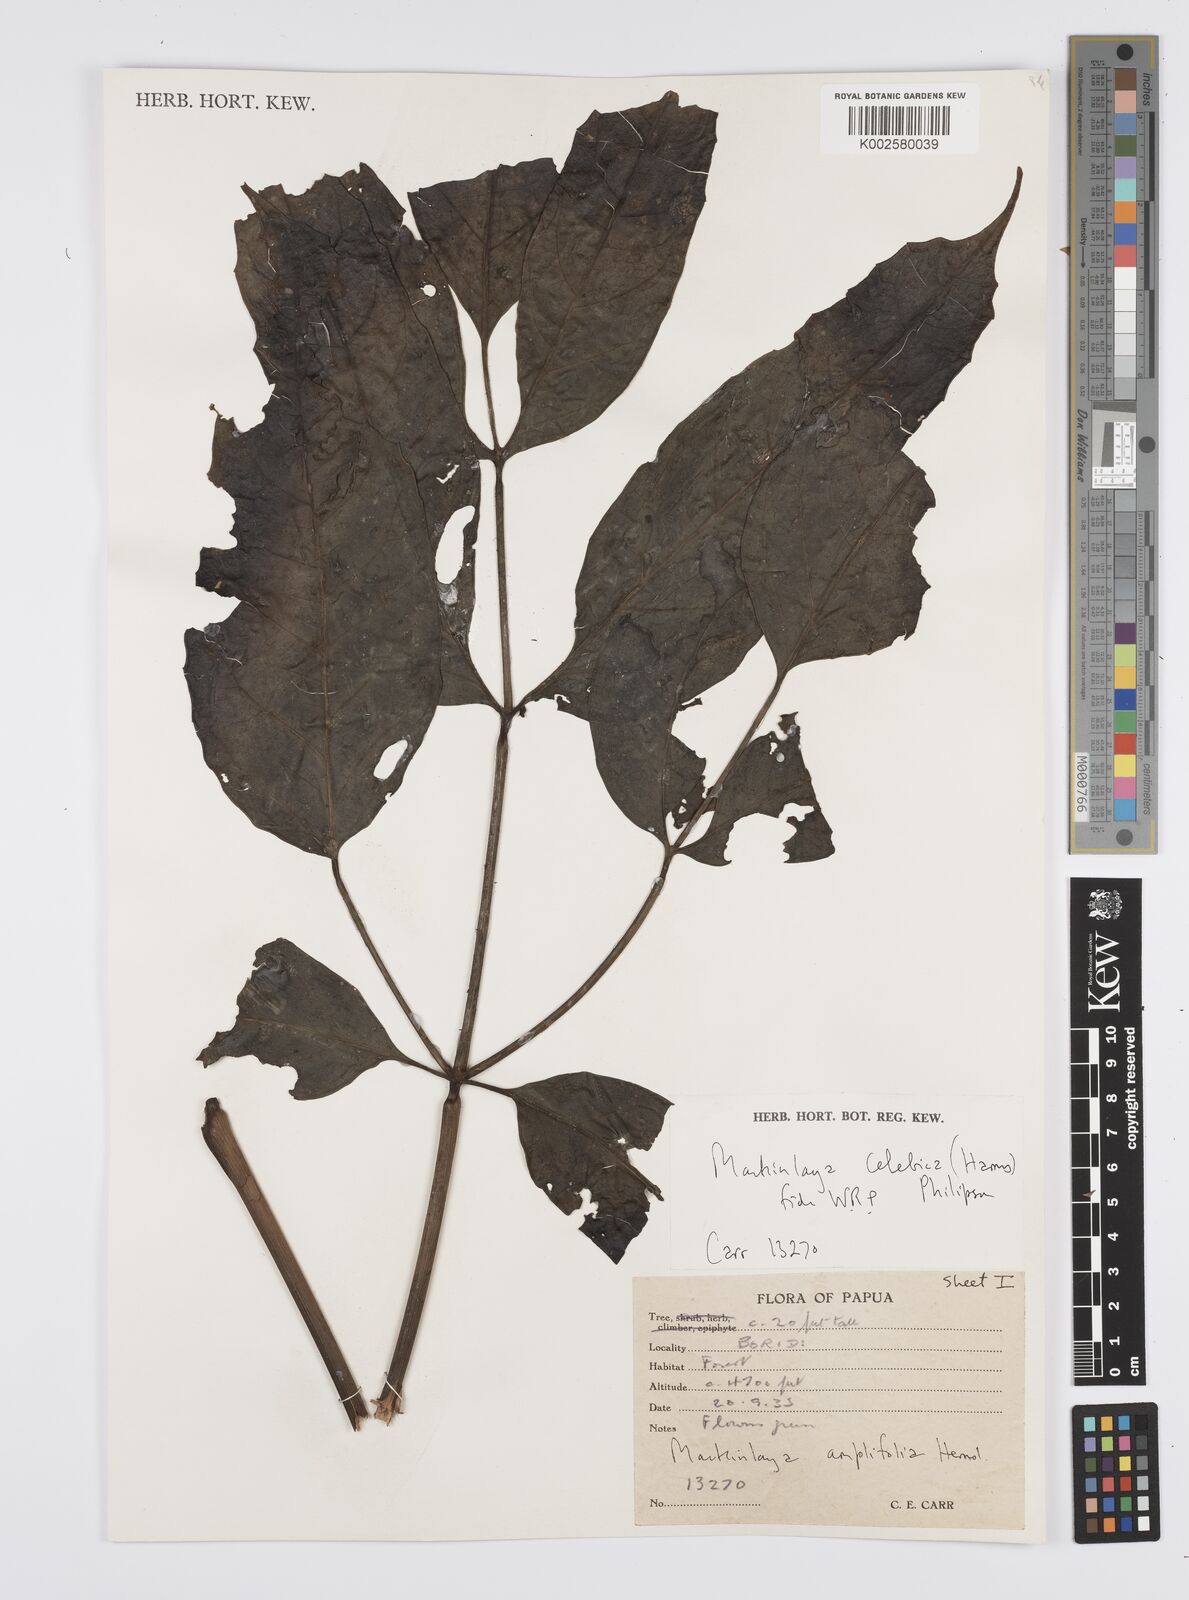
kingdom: Plantae
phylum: Tracheophyta
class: Magnoliopsida
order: Apiales
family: Apiaceae
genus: Mackinlaya
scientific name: Mackinlaya celebica
